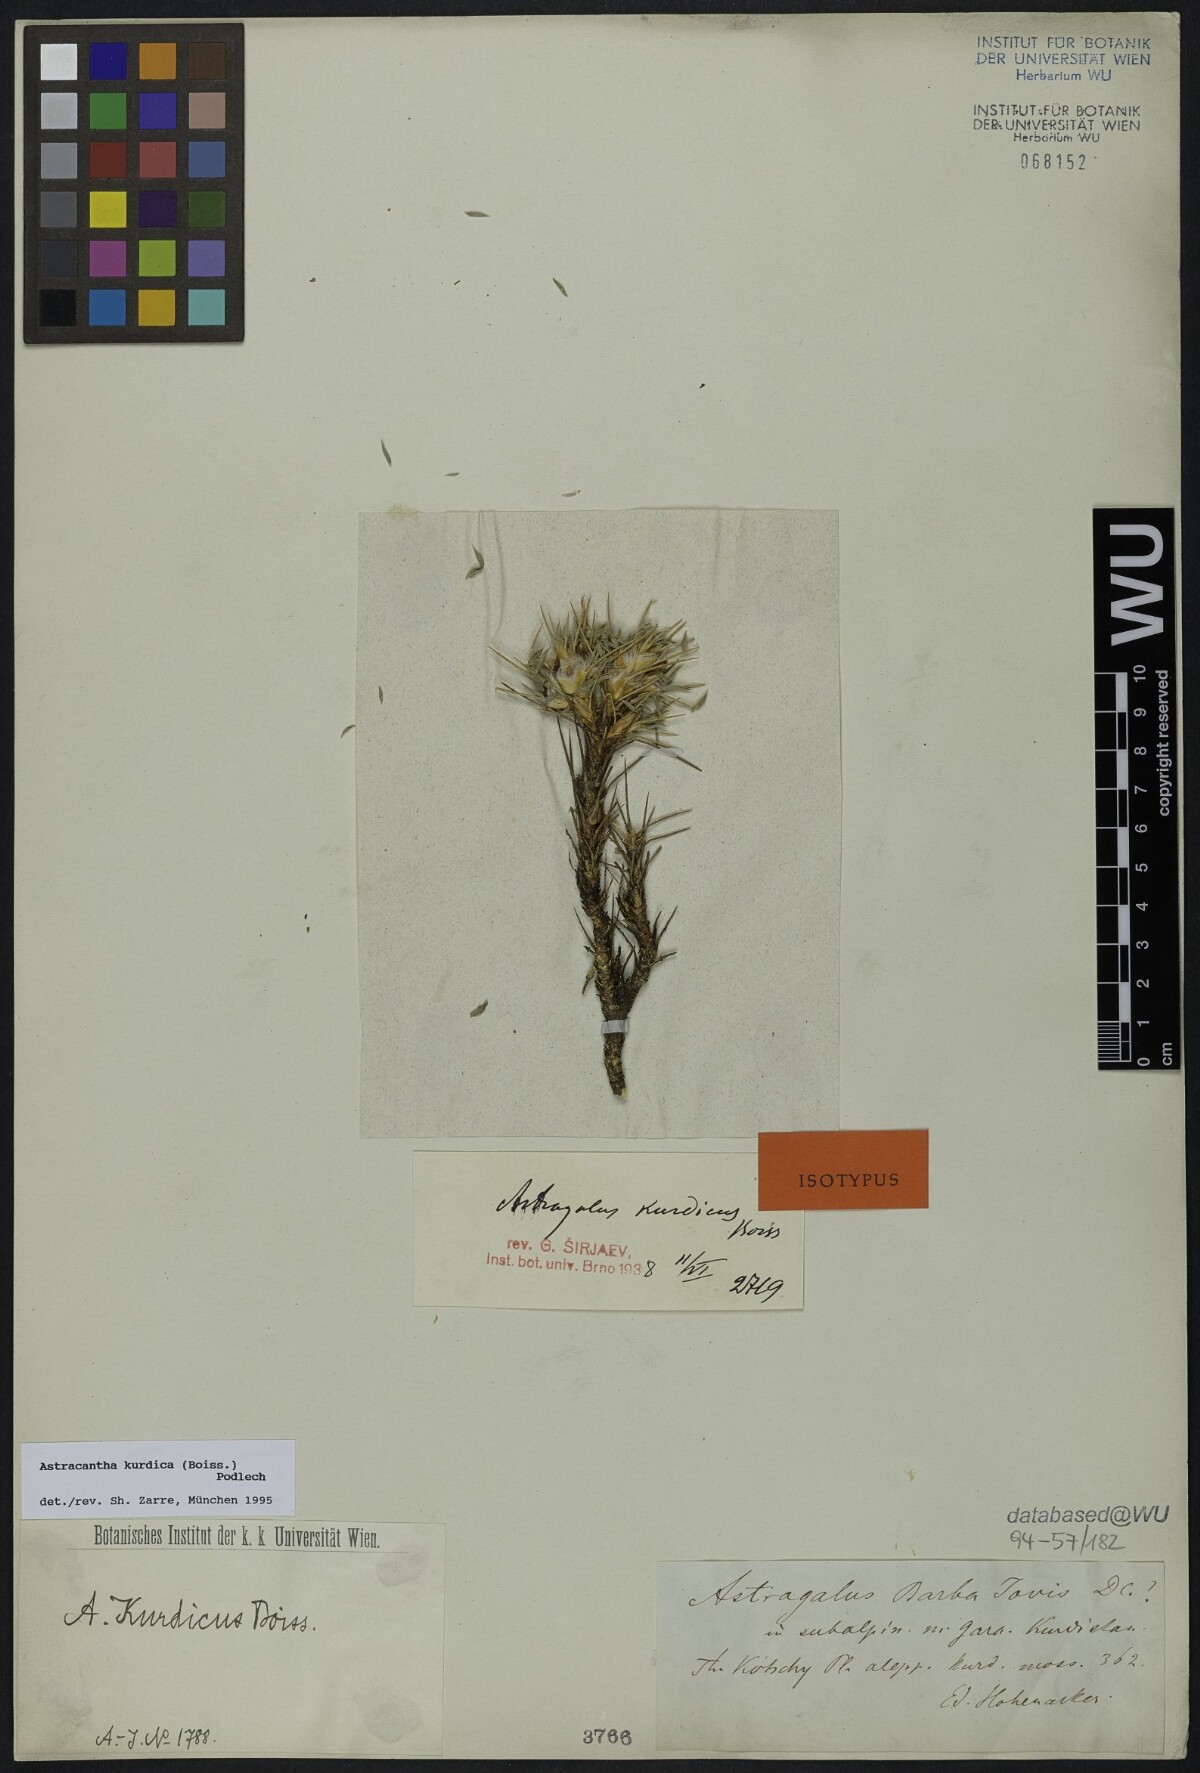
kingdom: Plantae
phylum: Tracheophyta
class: Magnoliopsida
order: Fabales
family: Fabaceae
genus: Astragalus
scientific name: Astragalus kurdicus
